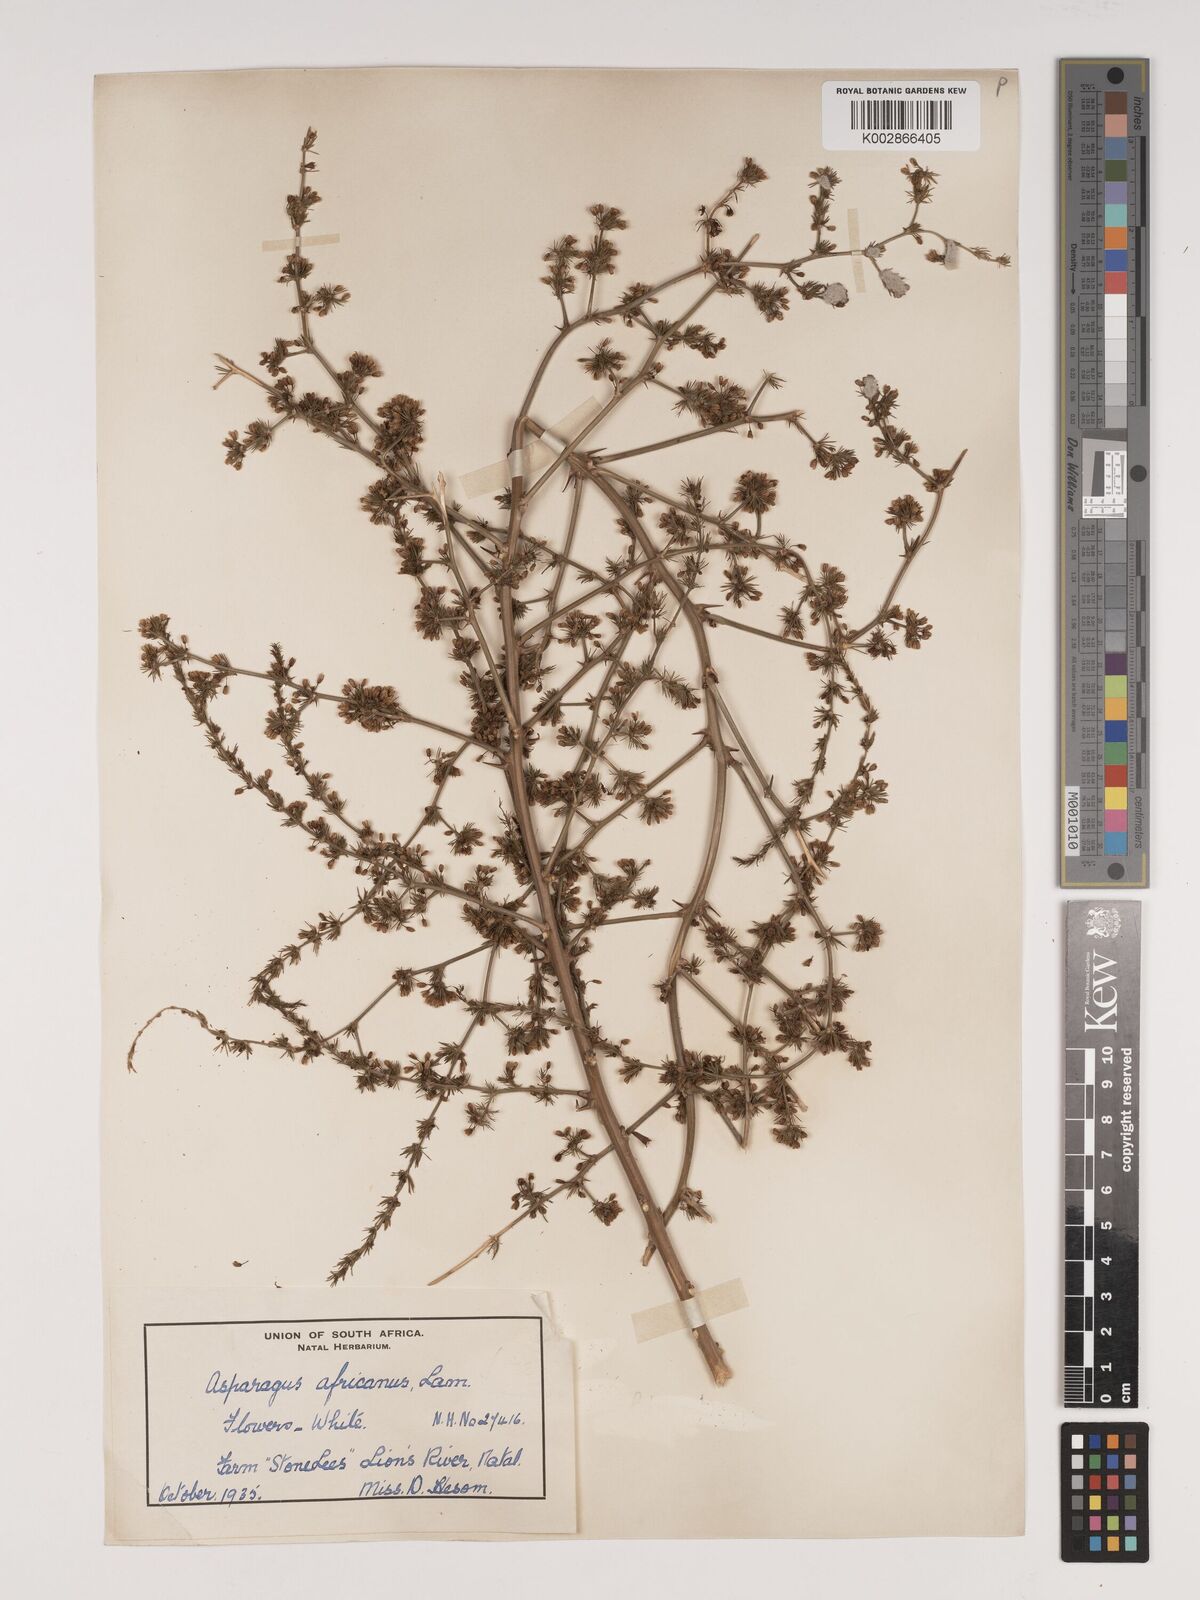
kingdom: Plantae
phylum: Tracheophyta
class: Liliopsida
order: Asparagales
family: Asparagaceae
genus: Asparagus
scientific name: Asparagus africanus
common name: Asparagus-fern
